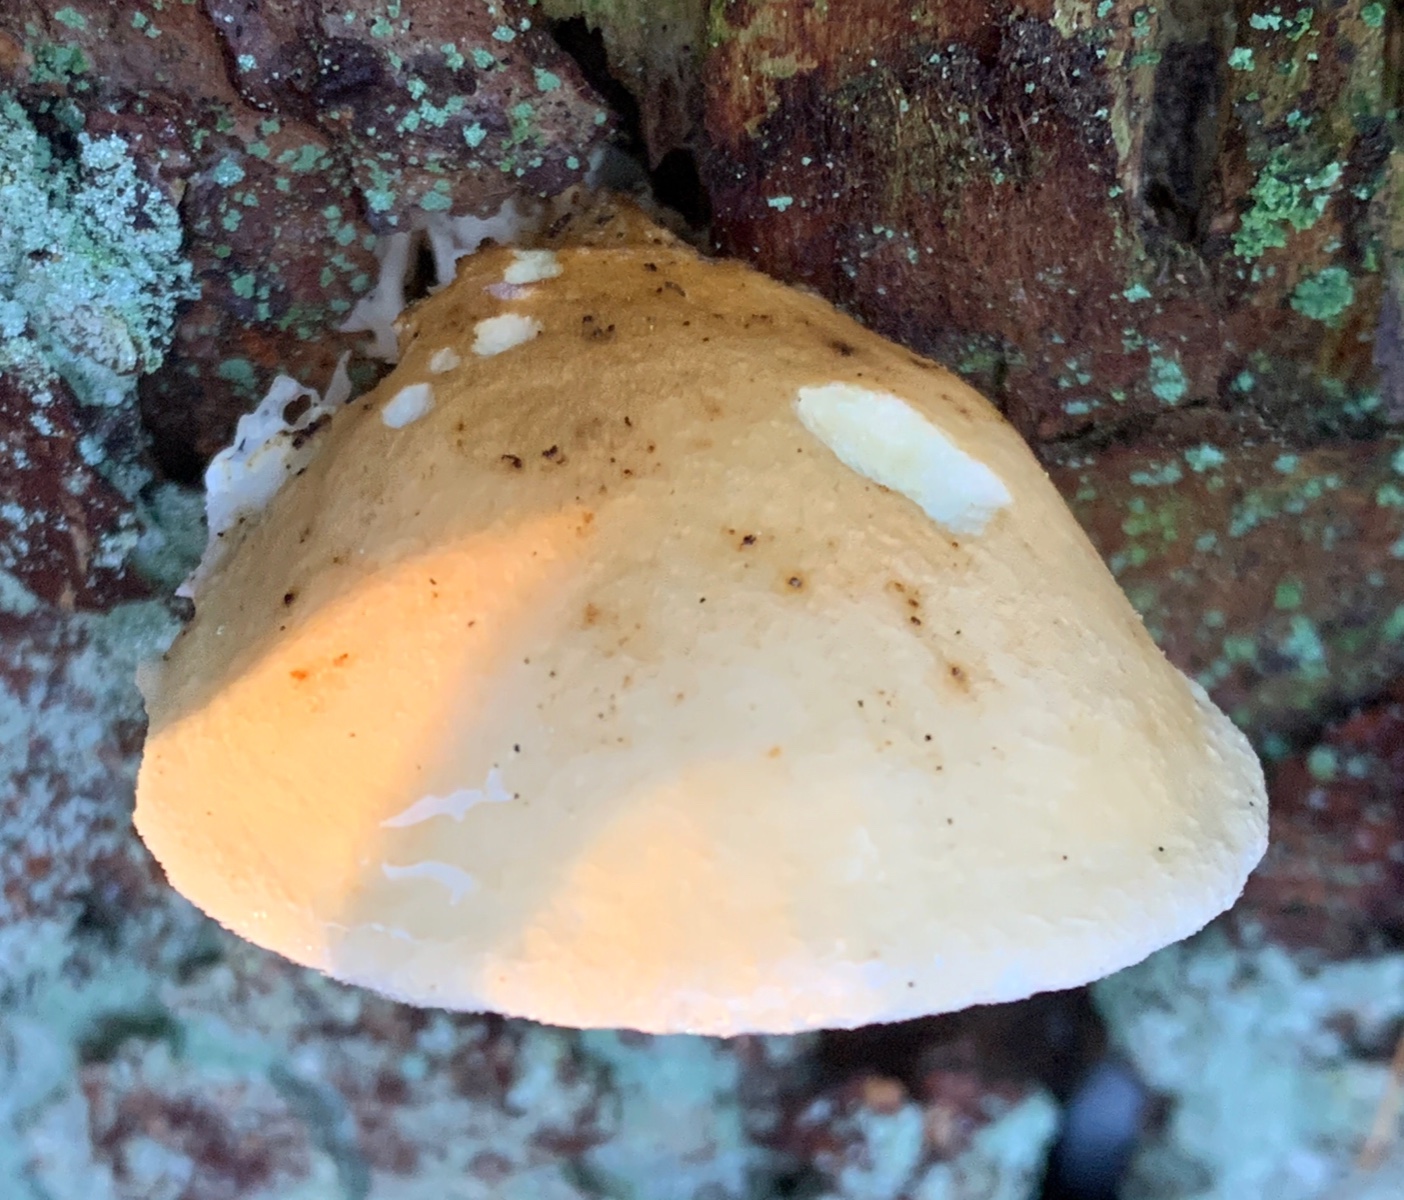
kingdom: Fungi
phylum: Basidiomycota
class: Agaricomycetes
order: Boletales
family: Hygrophoropsidaceae
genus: Hygrophoropsis
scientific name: Hygrophoropsis pallida
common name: bleg orangekantarel
